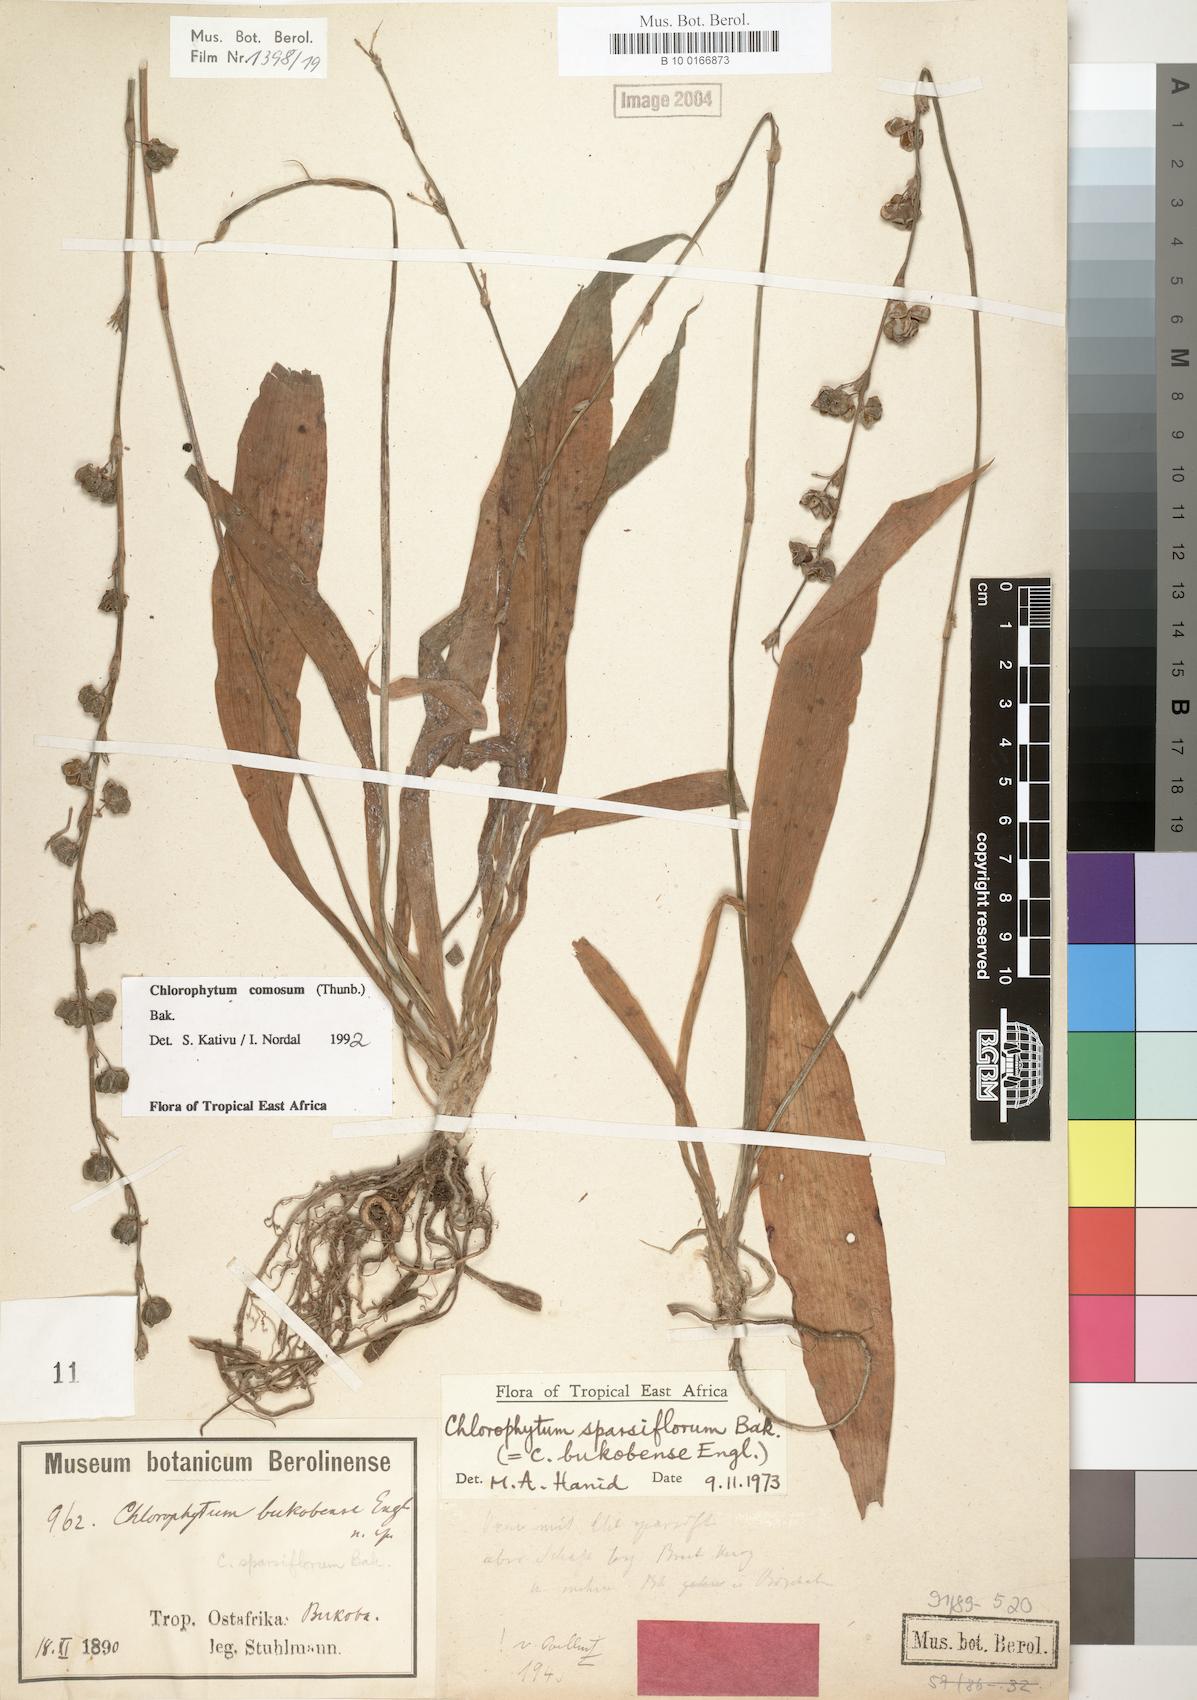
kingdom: Plantae
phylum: Tracheophyta
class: Liliopsida
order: Asparagales
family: Asparagaceae
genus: Chlorophytum
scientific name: Chlorophytum comosum
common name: Spider plant
